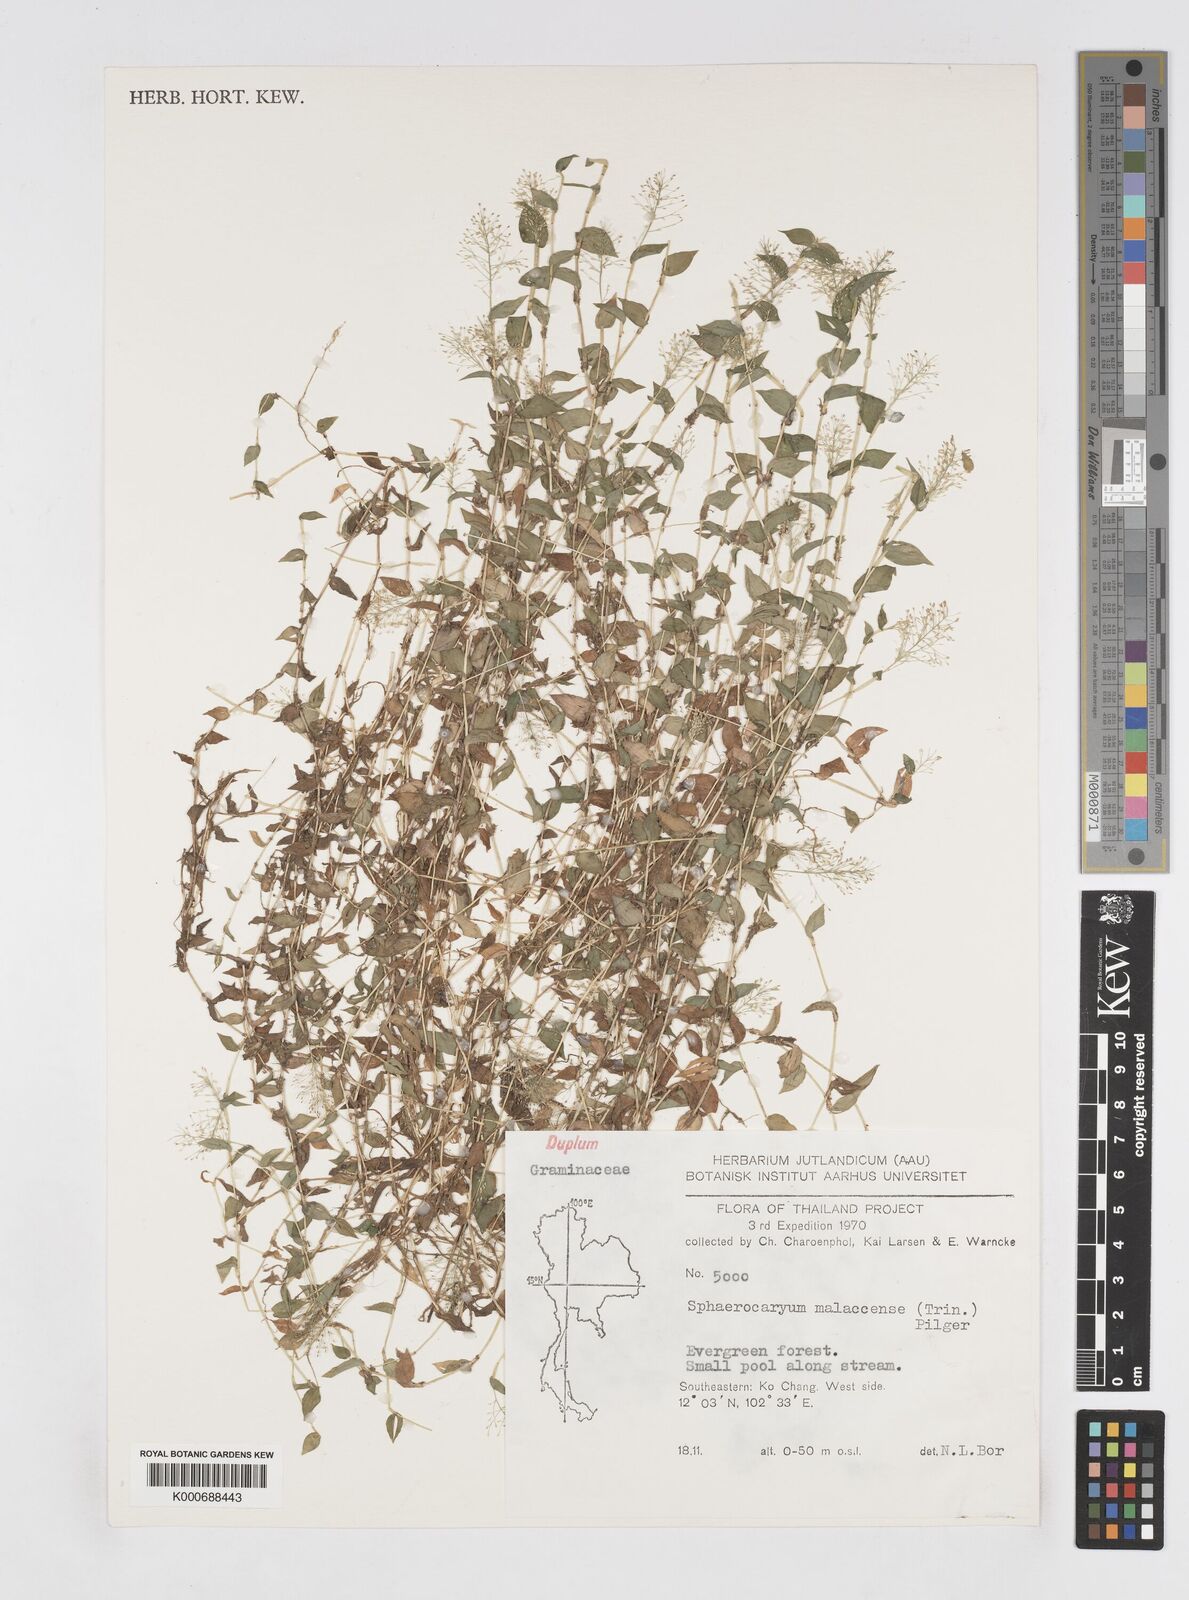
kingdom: Plantae
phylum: Tracheophyta
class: Liliopsida
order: Poales
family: Poaceae
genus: Sphaerocaryum
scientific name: Sphaerocaryum malaccense
